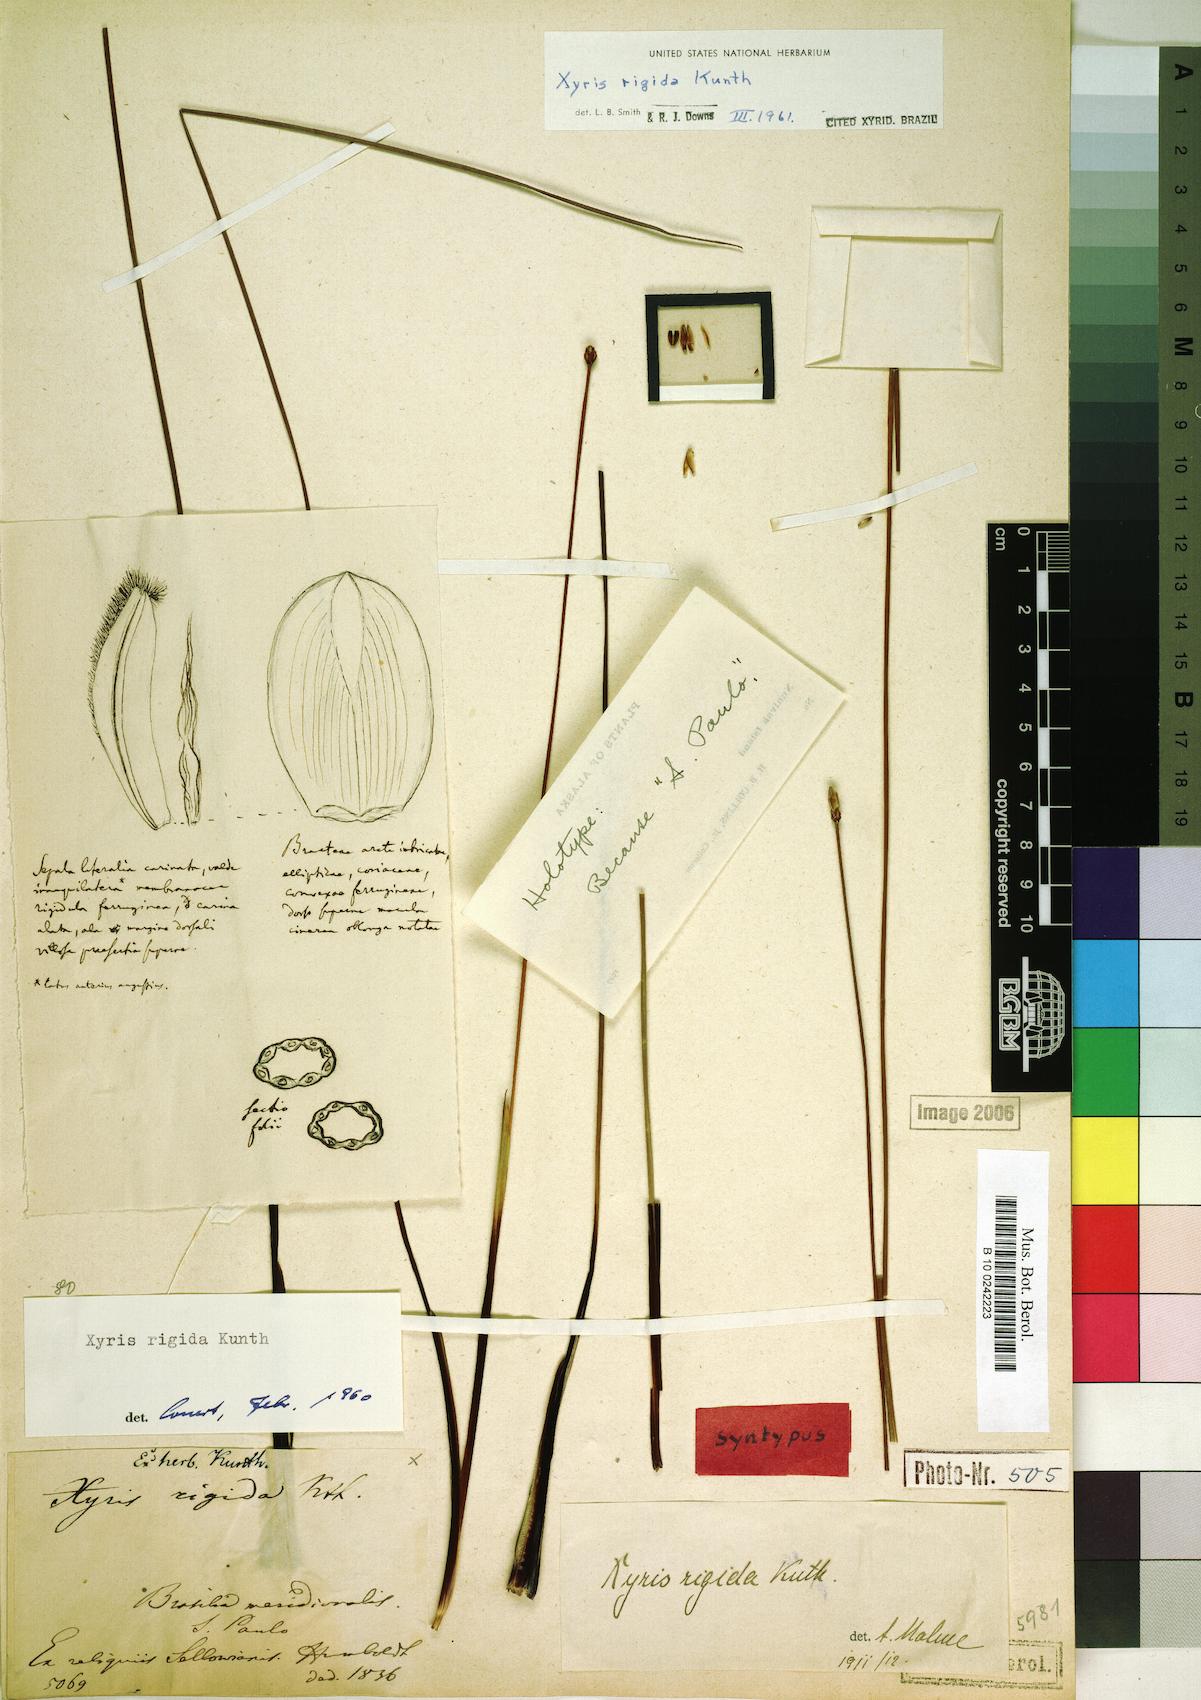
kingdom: Plantae
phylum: Tracheophyta
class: Liliopsida
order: Poales
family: Xyridaceae
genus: Xyris
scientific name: Xyris rigida
